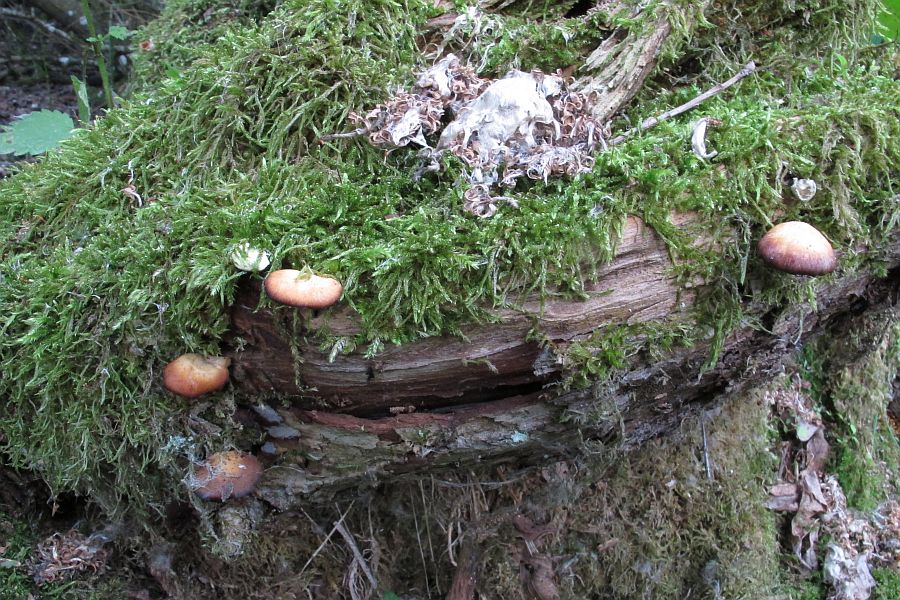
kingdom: Fungi
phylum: Basidiomycota
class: Agaricomycetes
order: Polyporales
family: Polyporaceae
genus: Cerioporus
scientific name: Cerioporus varius
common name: foranderlig stilkporesvamp
